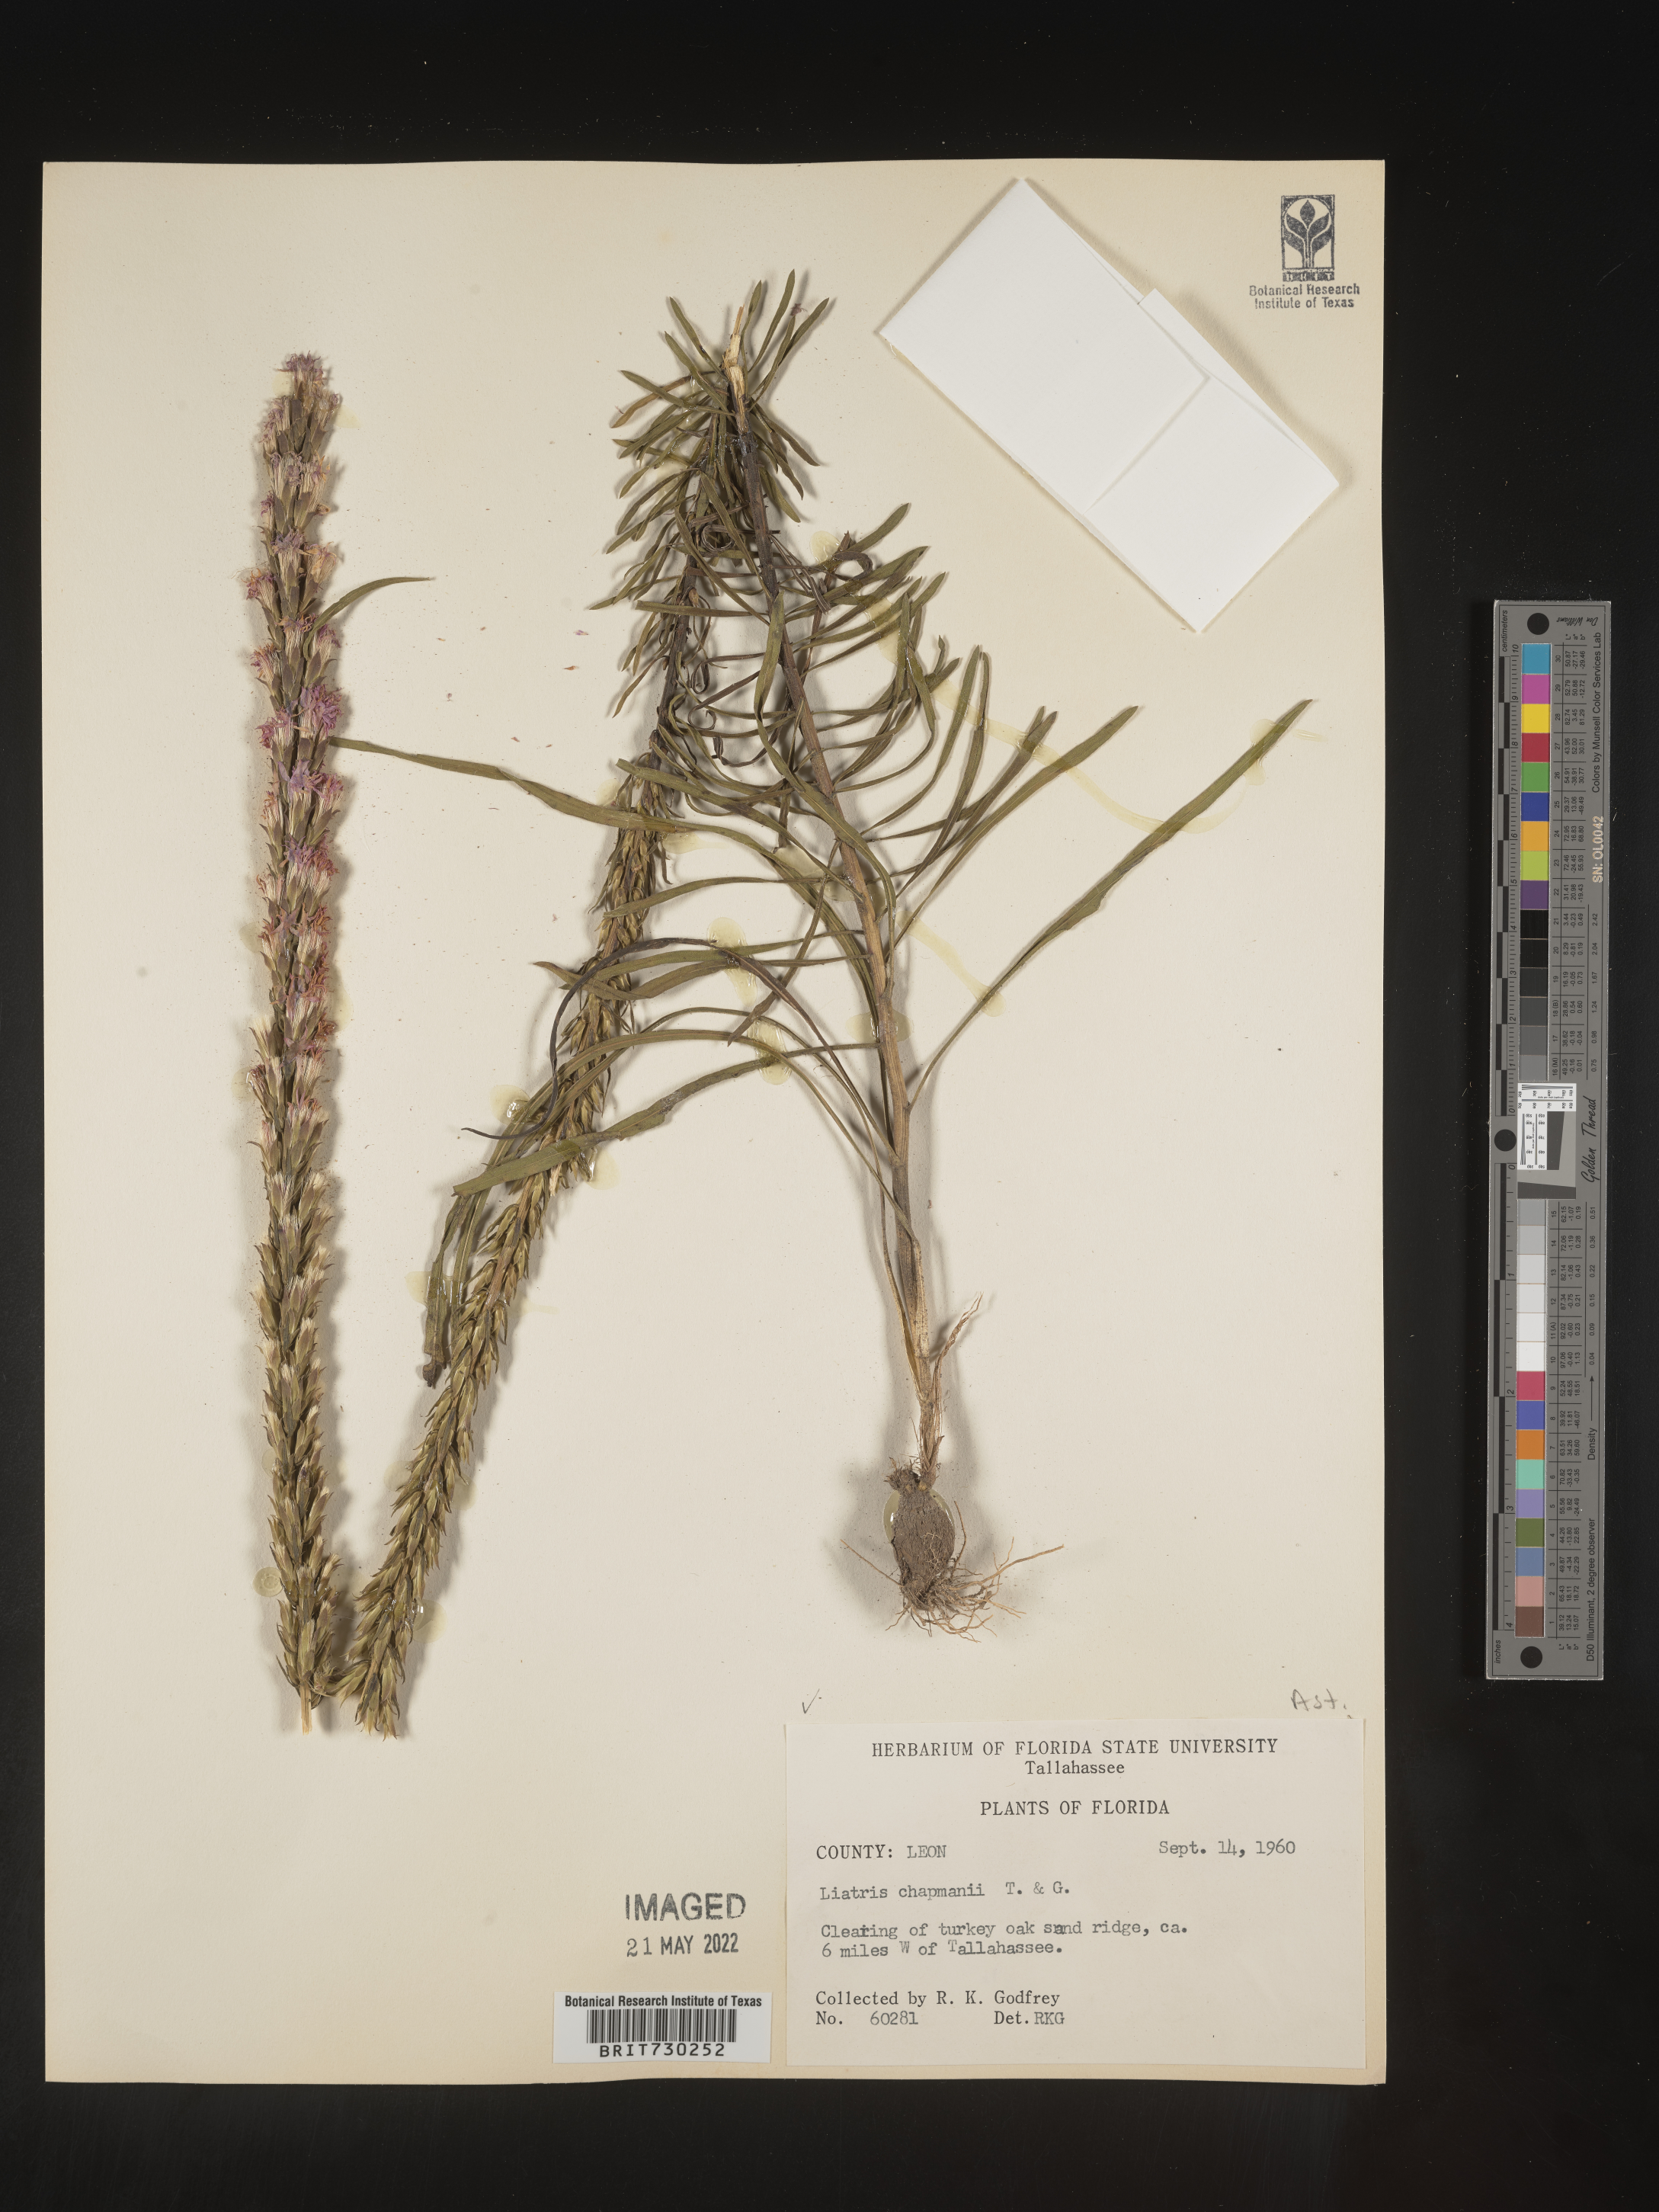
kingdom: Plantae
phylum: Tracheophyta
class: Magnoliopsida
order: Asterales
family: Asteraceae
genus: Liatris
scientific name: Liatris chapmanii
